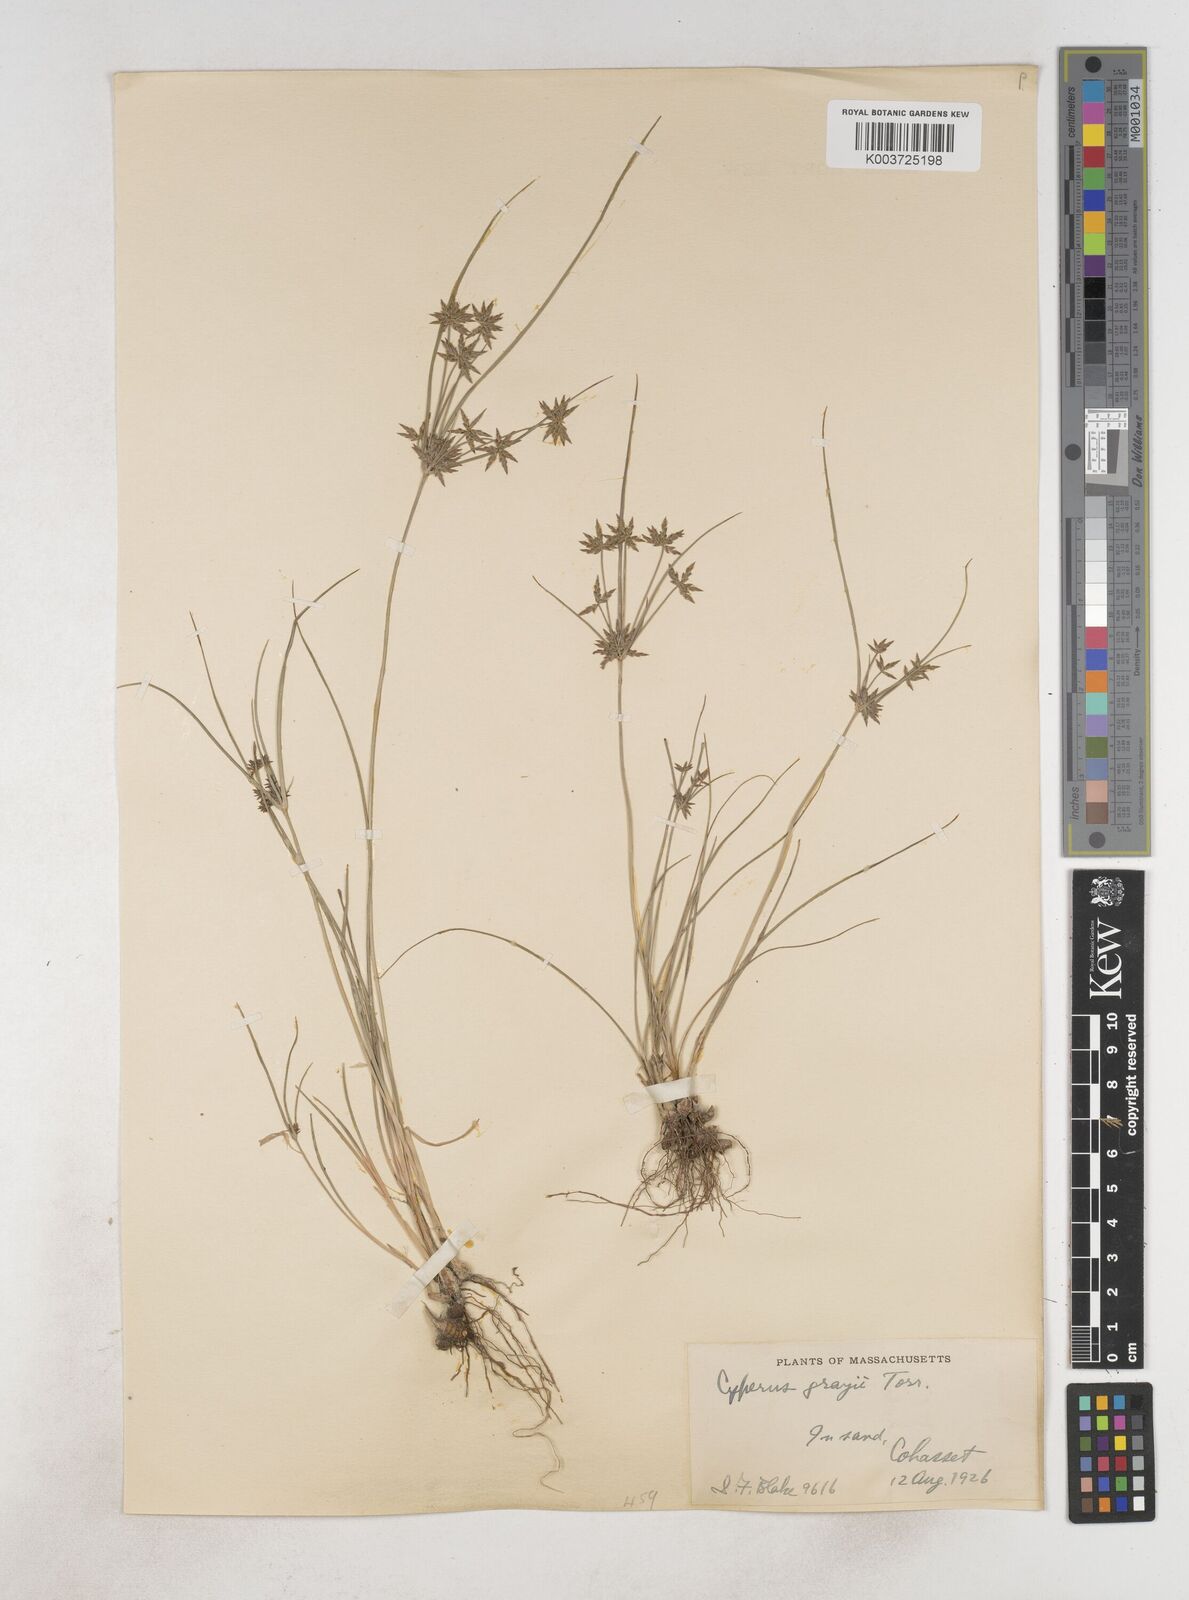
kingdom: Plantae
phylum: Tracheophyta
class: Liliopsida
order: Poales
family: Cyperaceae
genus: Cyperus
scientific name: Cyperus grayi
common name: Gray's flat sedge
